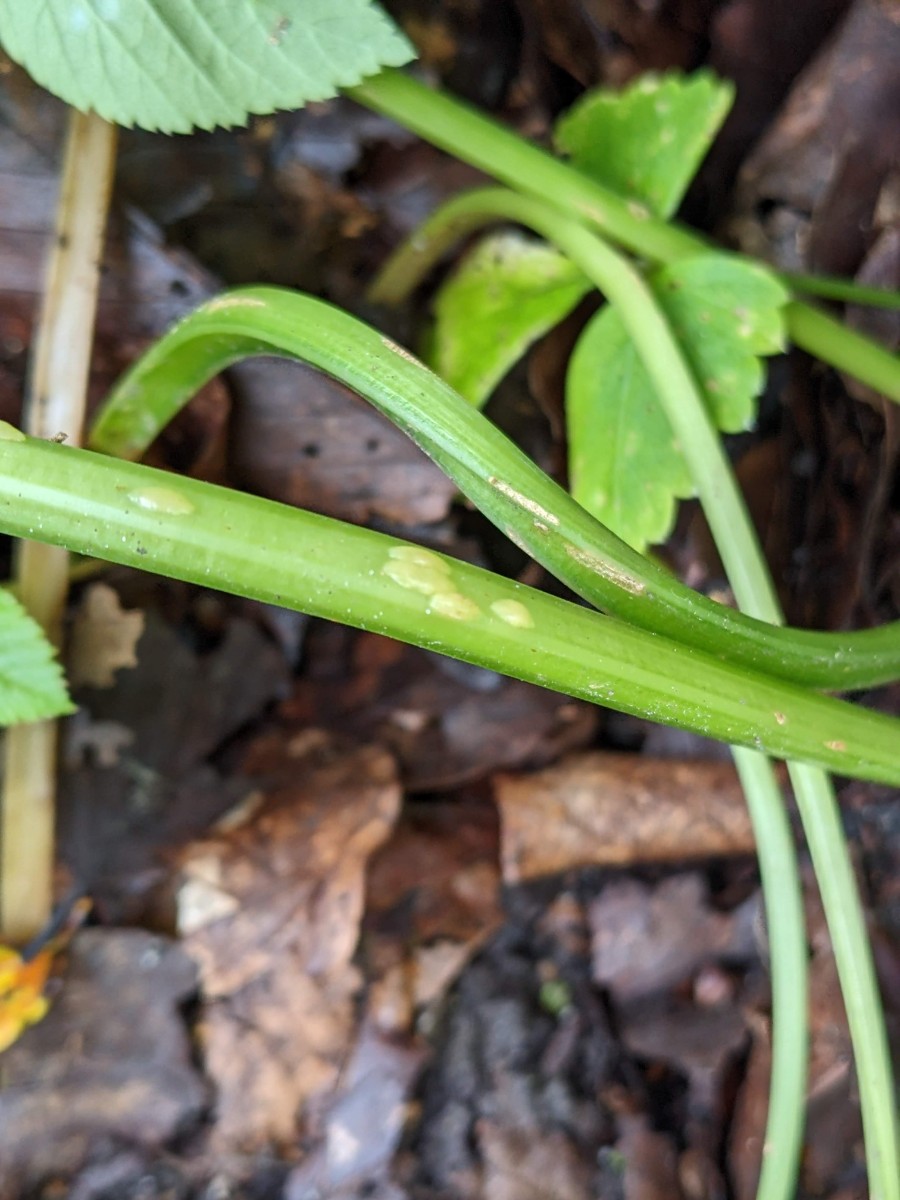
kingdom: Fungi
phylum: Ascomycota
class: Taphrinomycetes
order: Taphrinales
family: Taphrinaceae
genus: Protomyces
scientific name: Protomyces macrosporus
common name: skvalderkål-vablesæk
